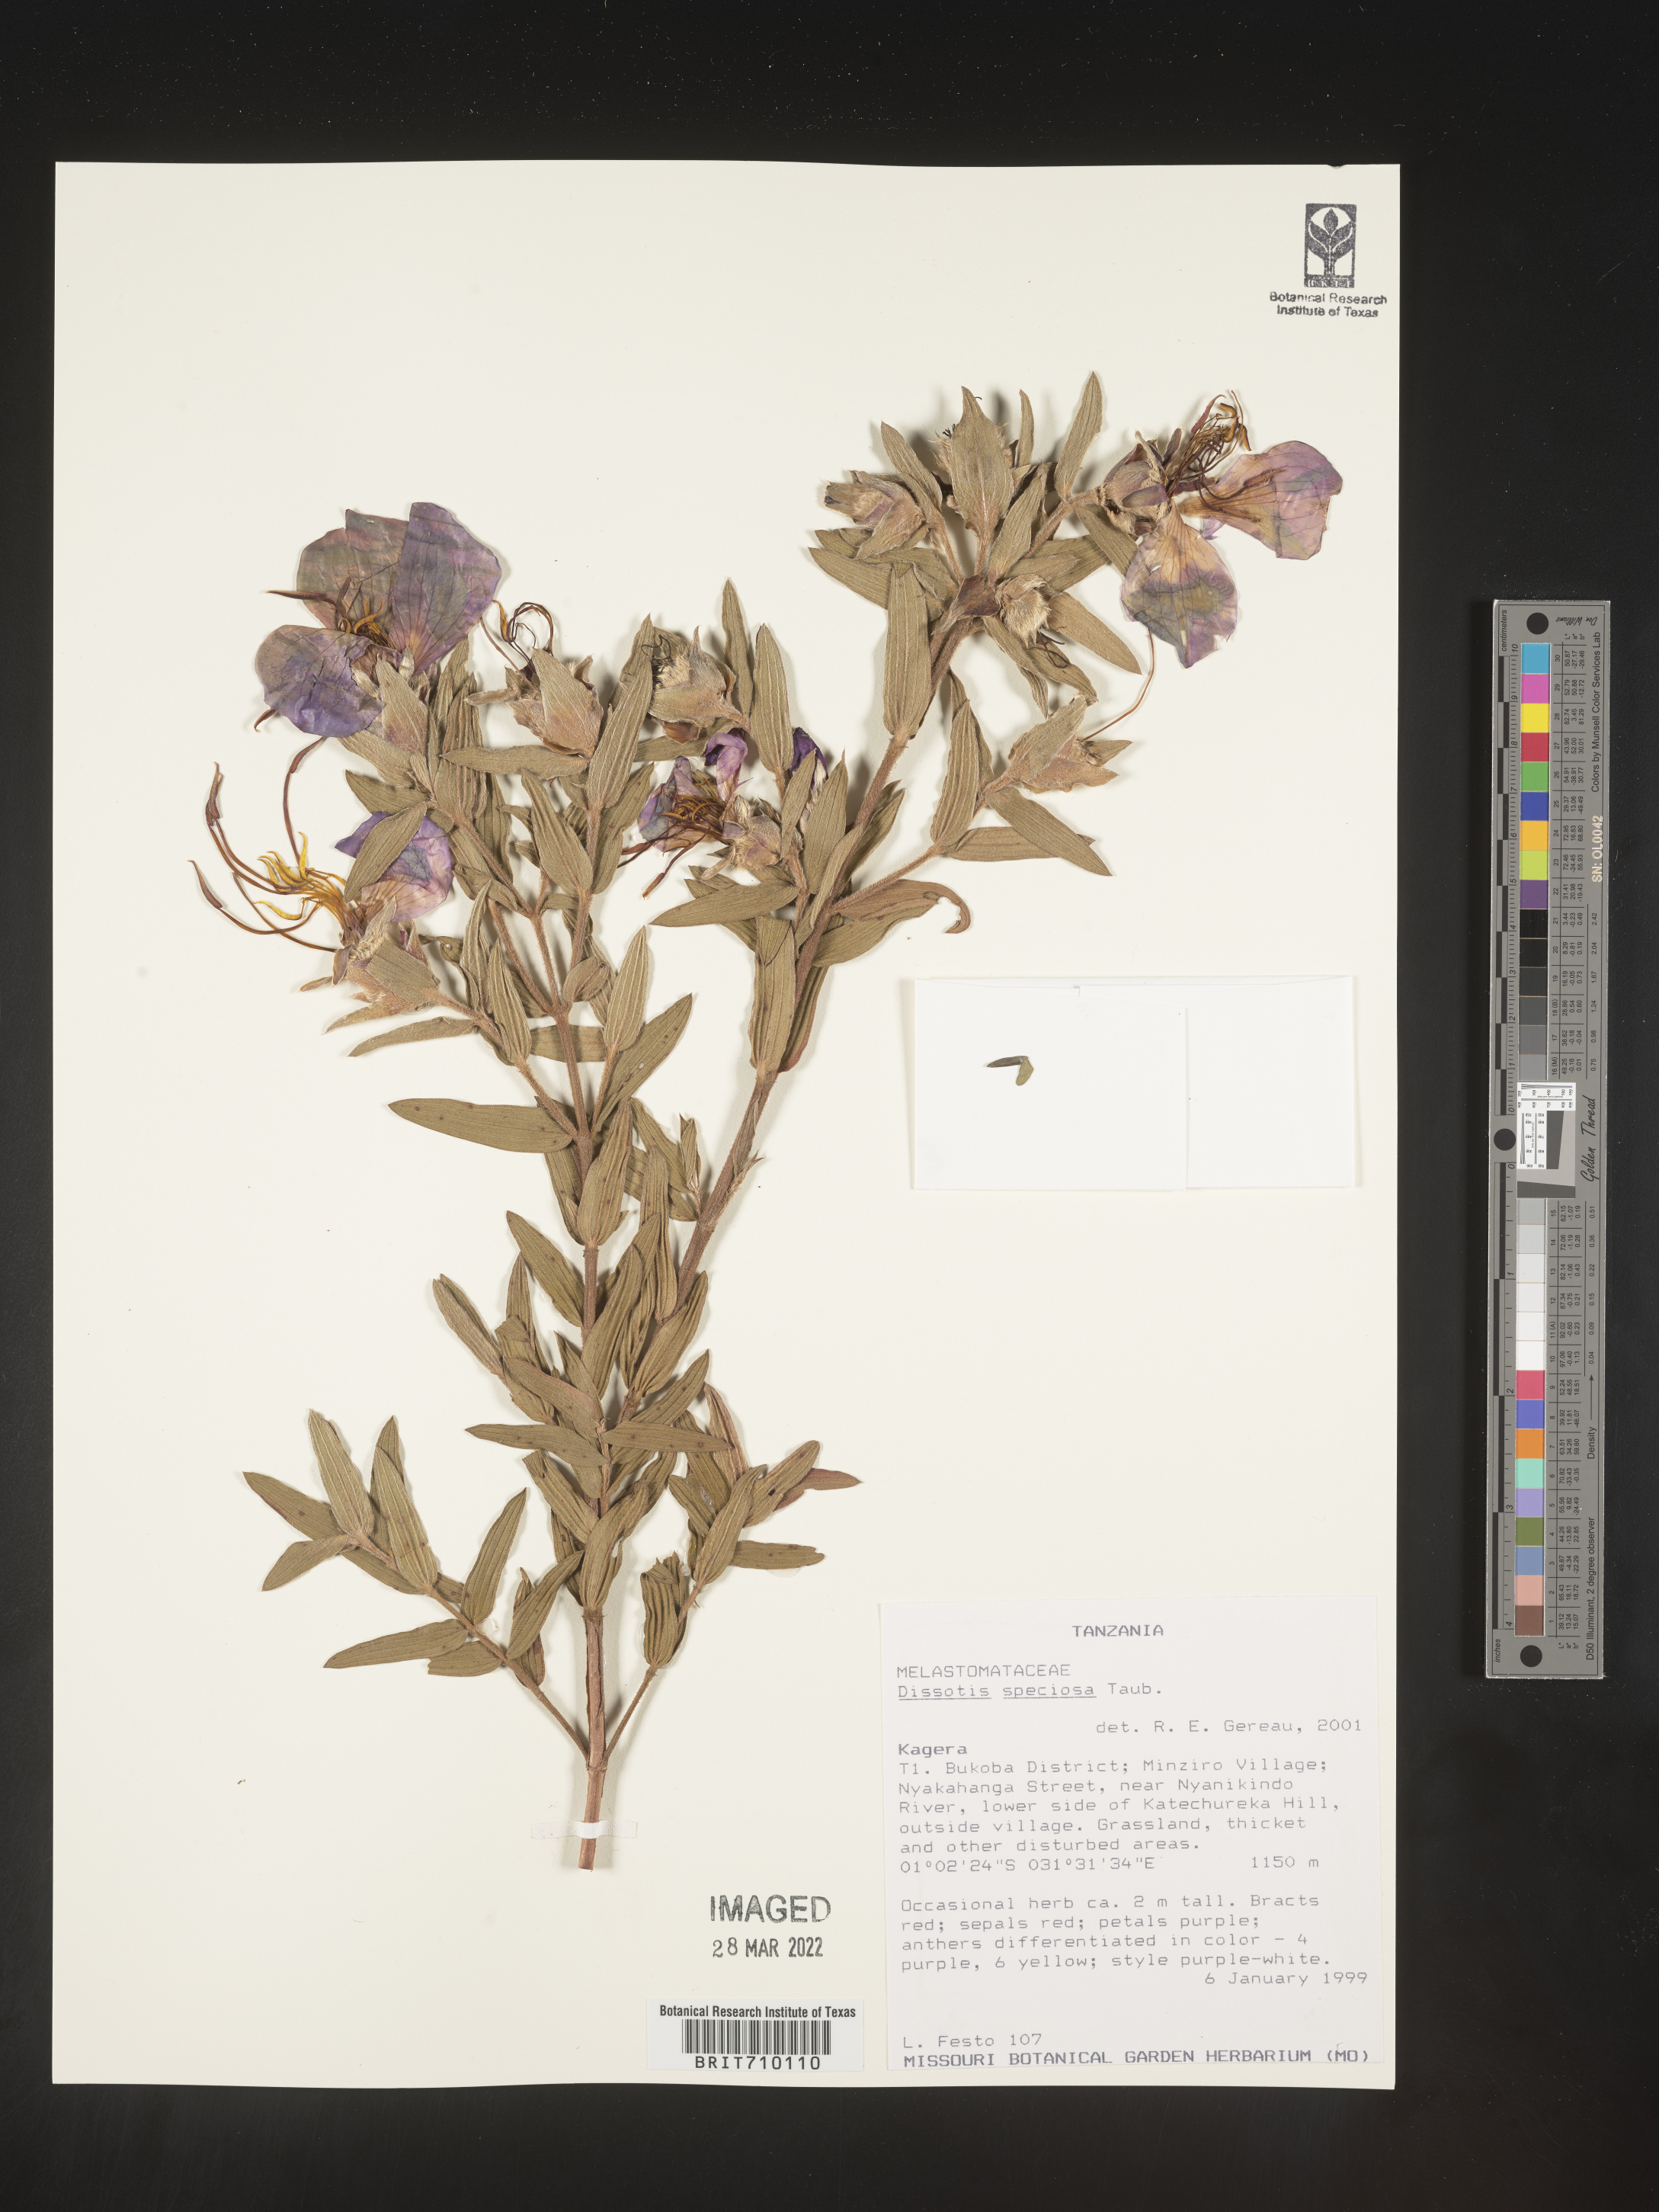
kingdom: Plantae
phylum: Tracheophyta
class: Magnoliopsida
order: Myrtales
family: Melastomataceae
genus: Dissotis
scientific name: Dissotis
